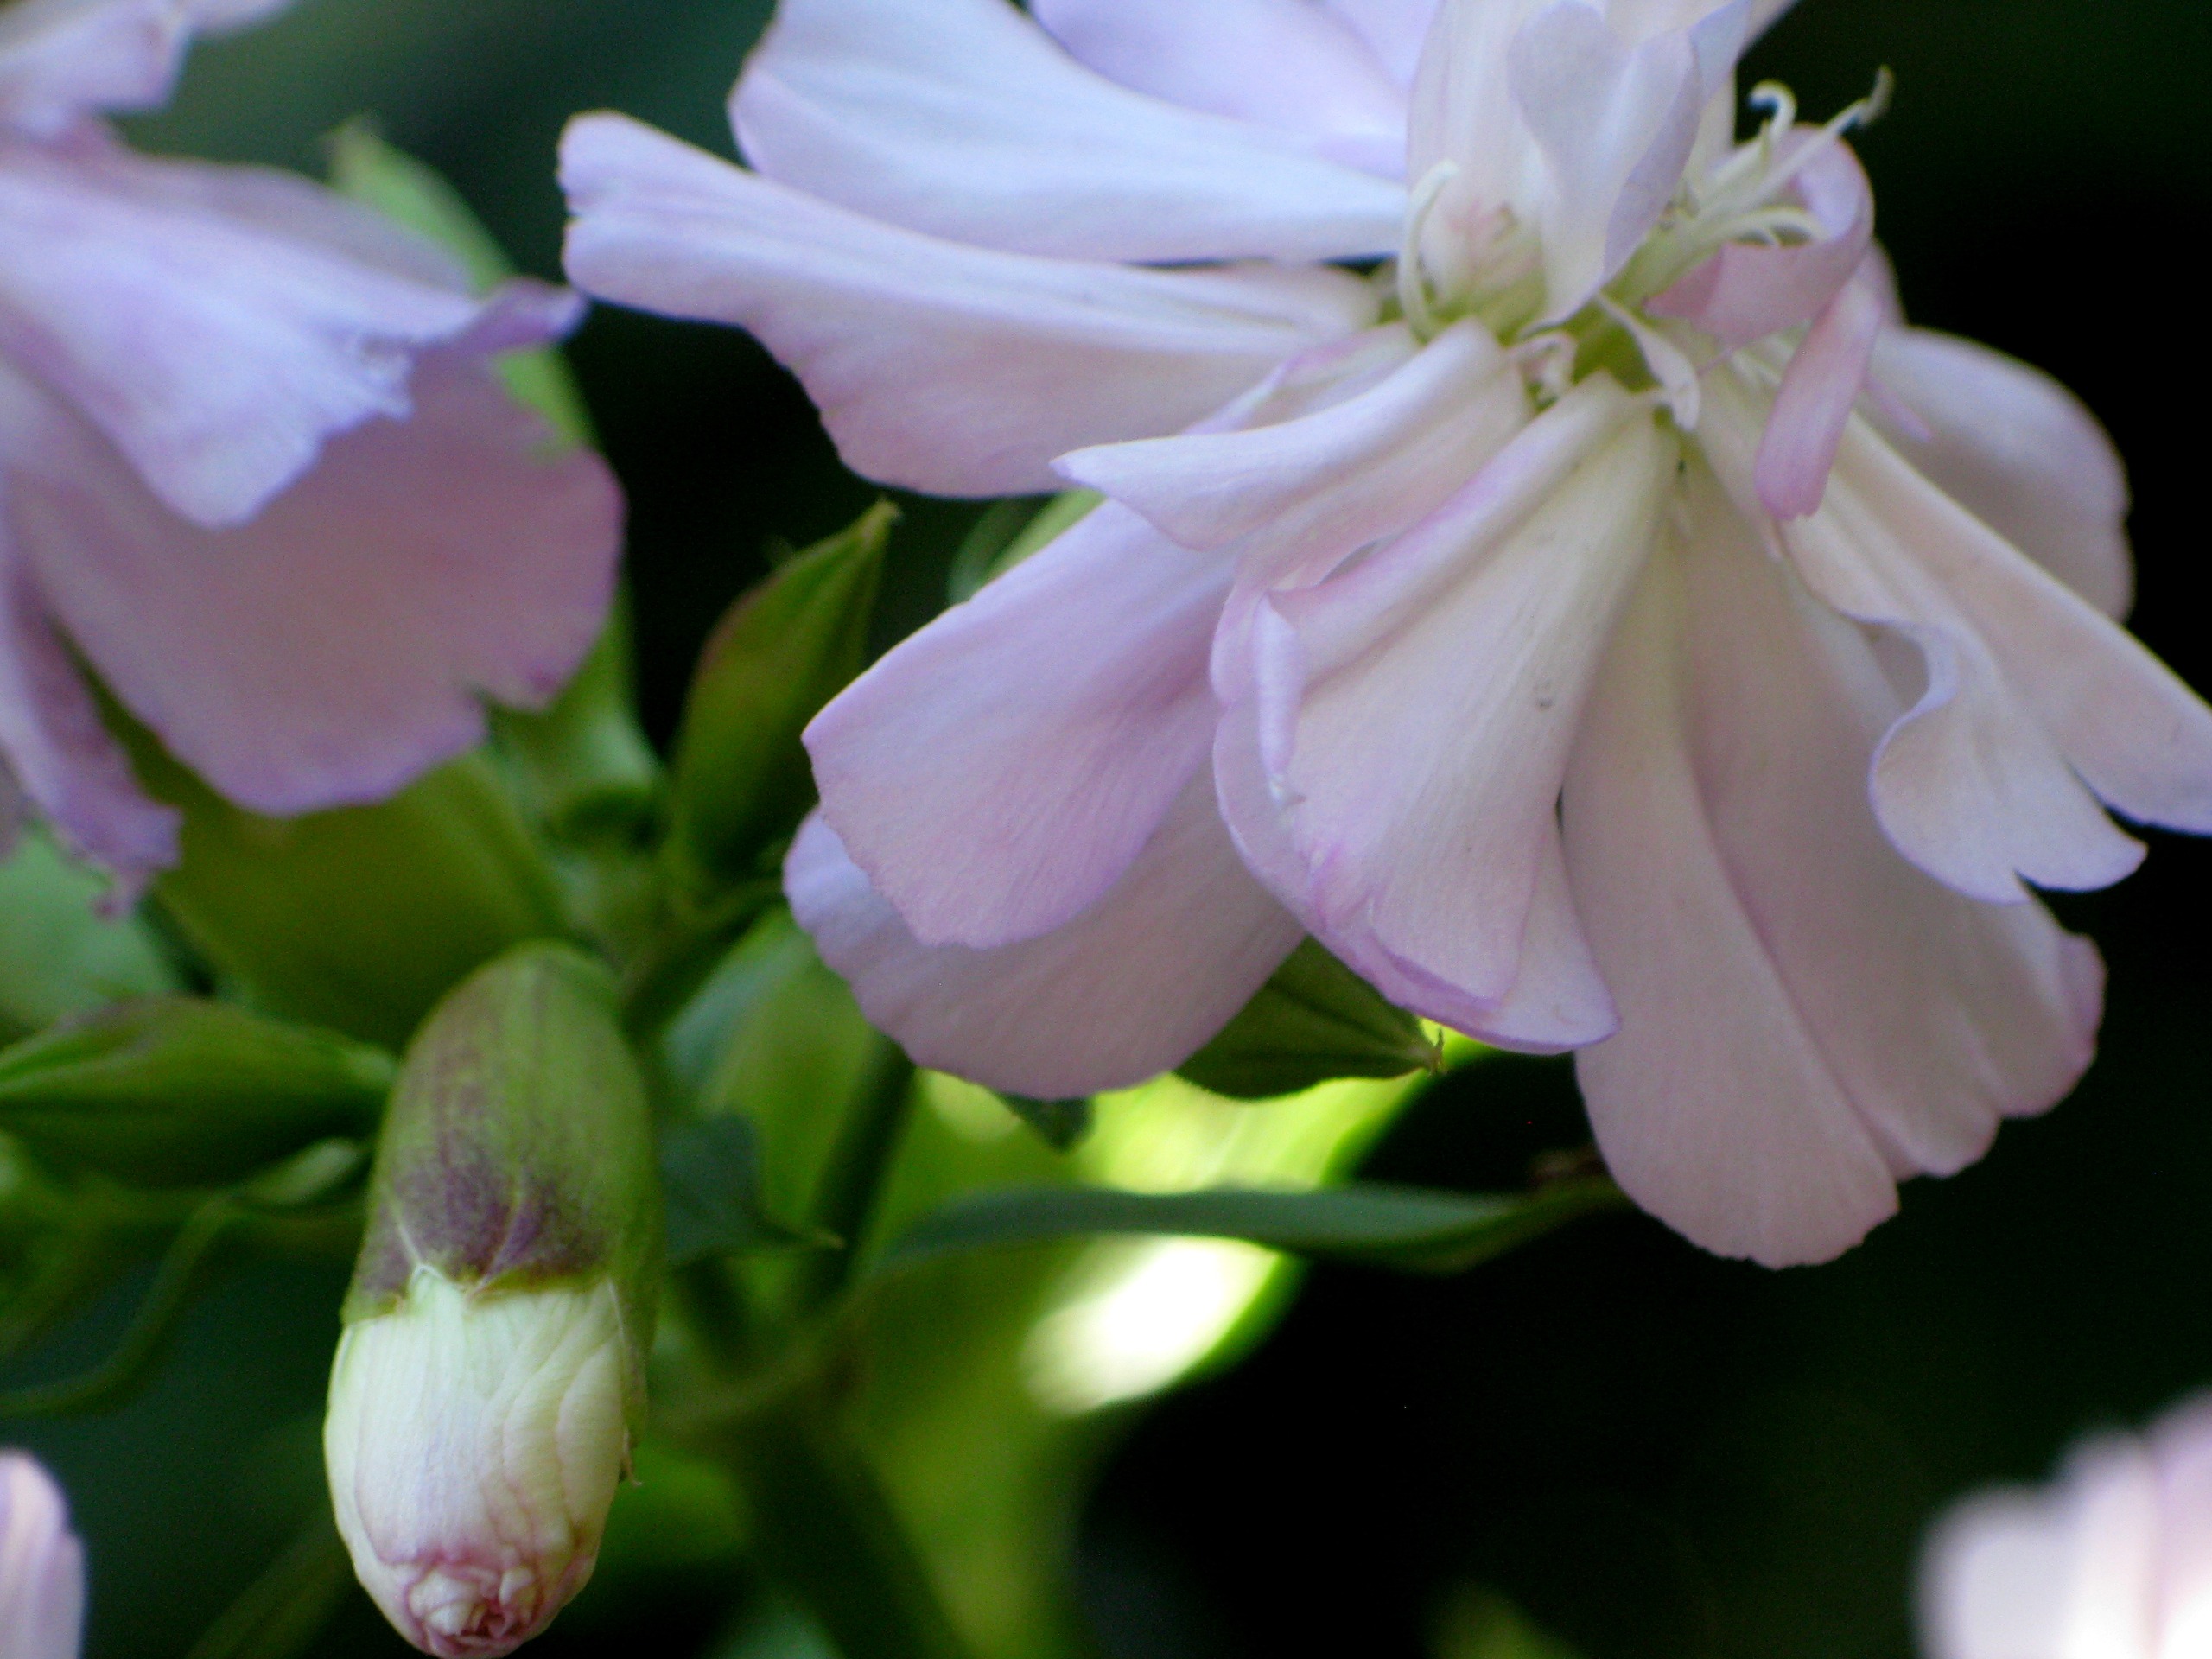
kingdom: Plantae
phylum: Tracheophyta
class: Magnoliopsida
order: Caryophyllales
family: Caryophyllaceae
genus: Saponaria
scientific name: Saponaria officinalis
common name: Sæbeurt
